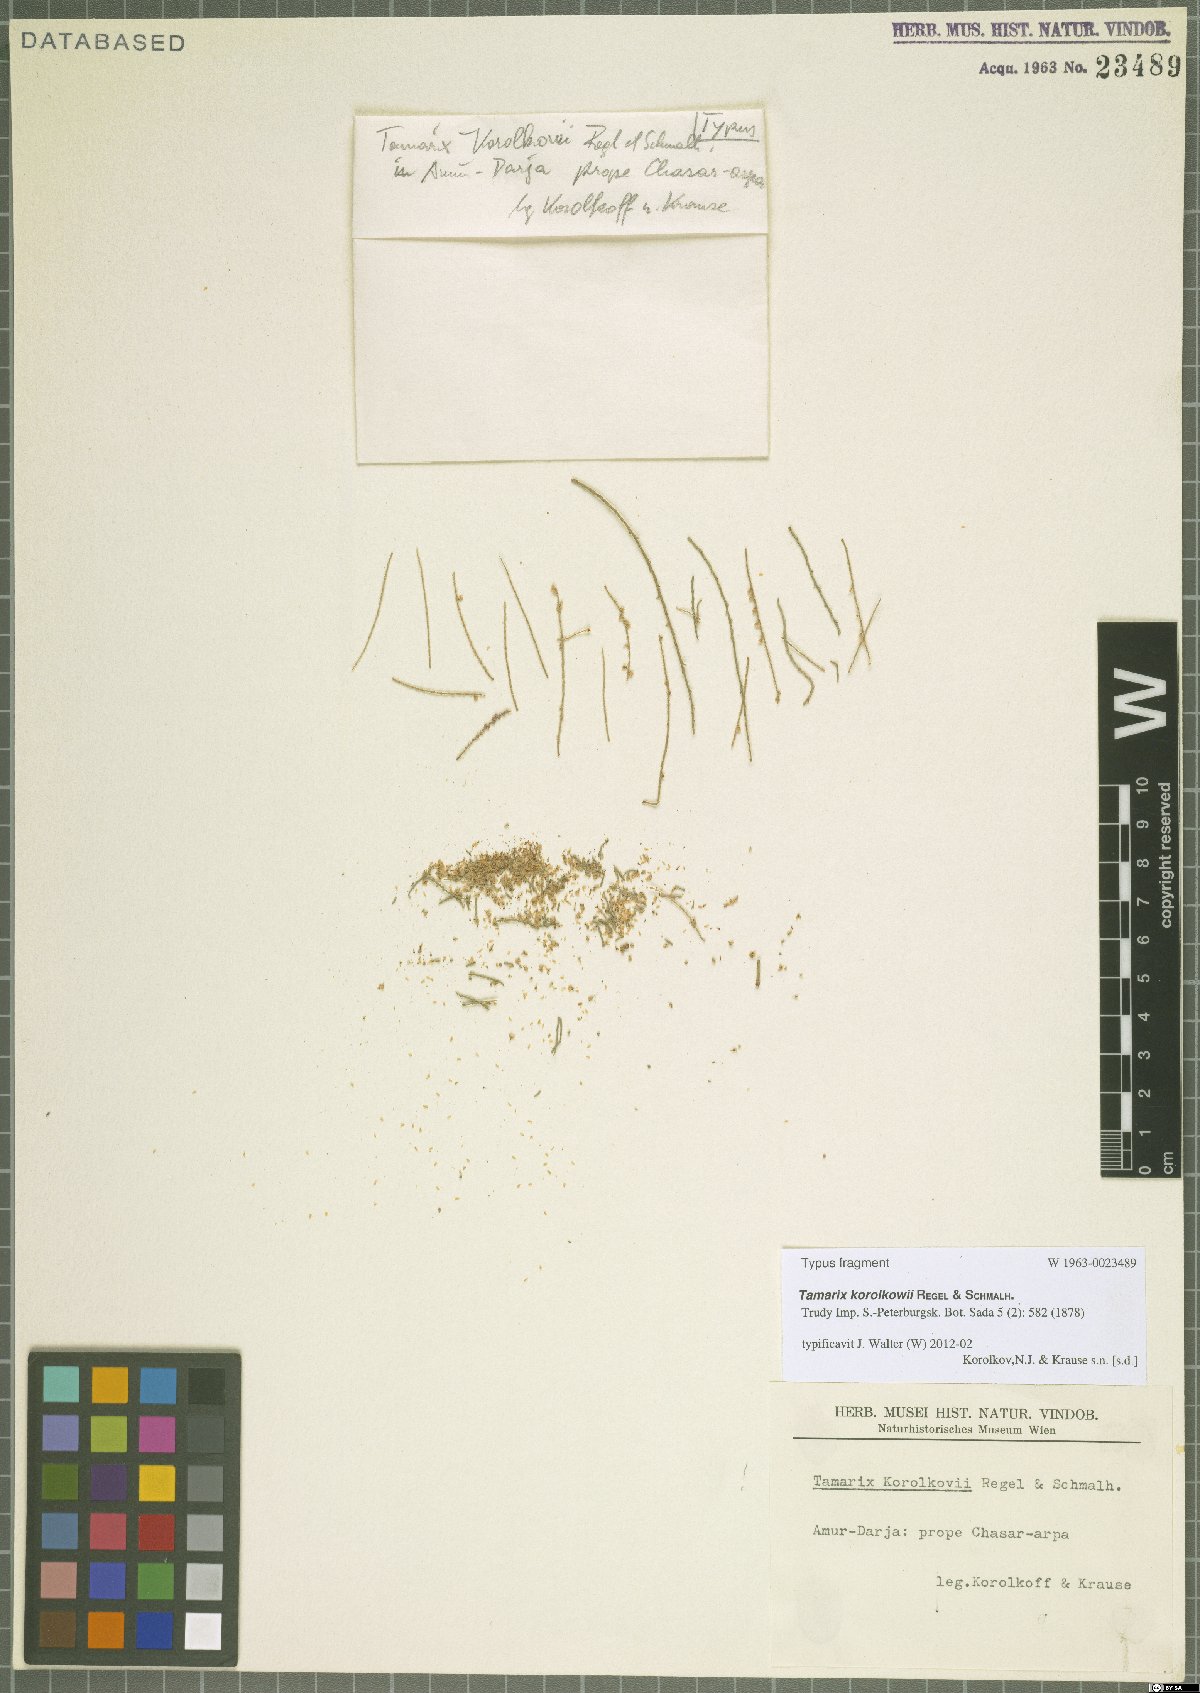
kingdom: Plantae
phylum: Tracheophyta
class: Magnoliopsida
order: Caryophyllales
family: Tamaricaceae
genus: Tamarix
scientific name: Tamarix korolkowii
